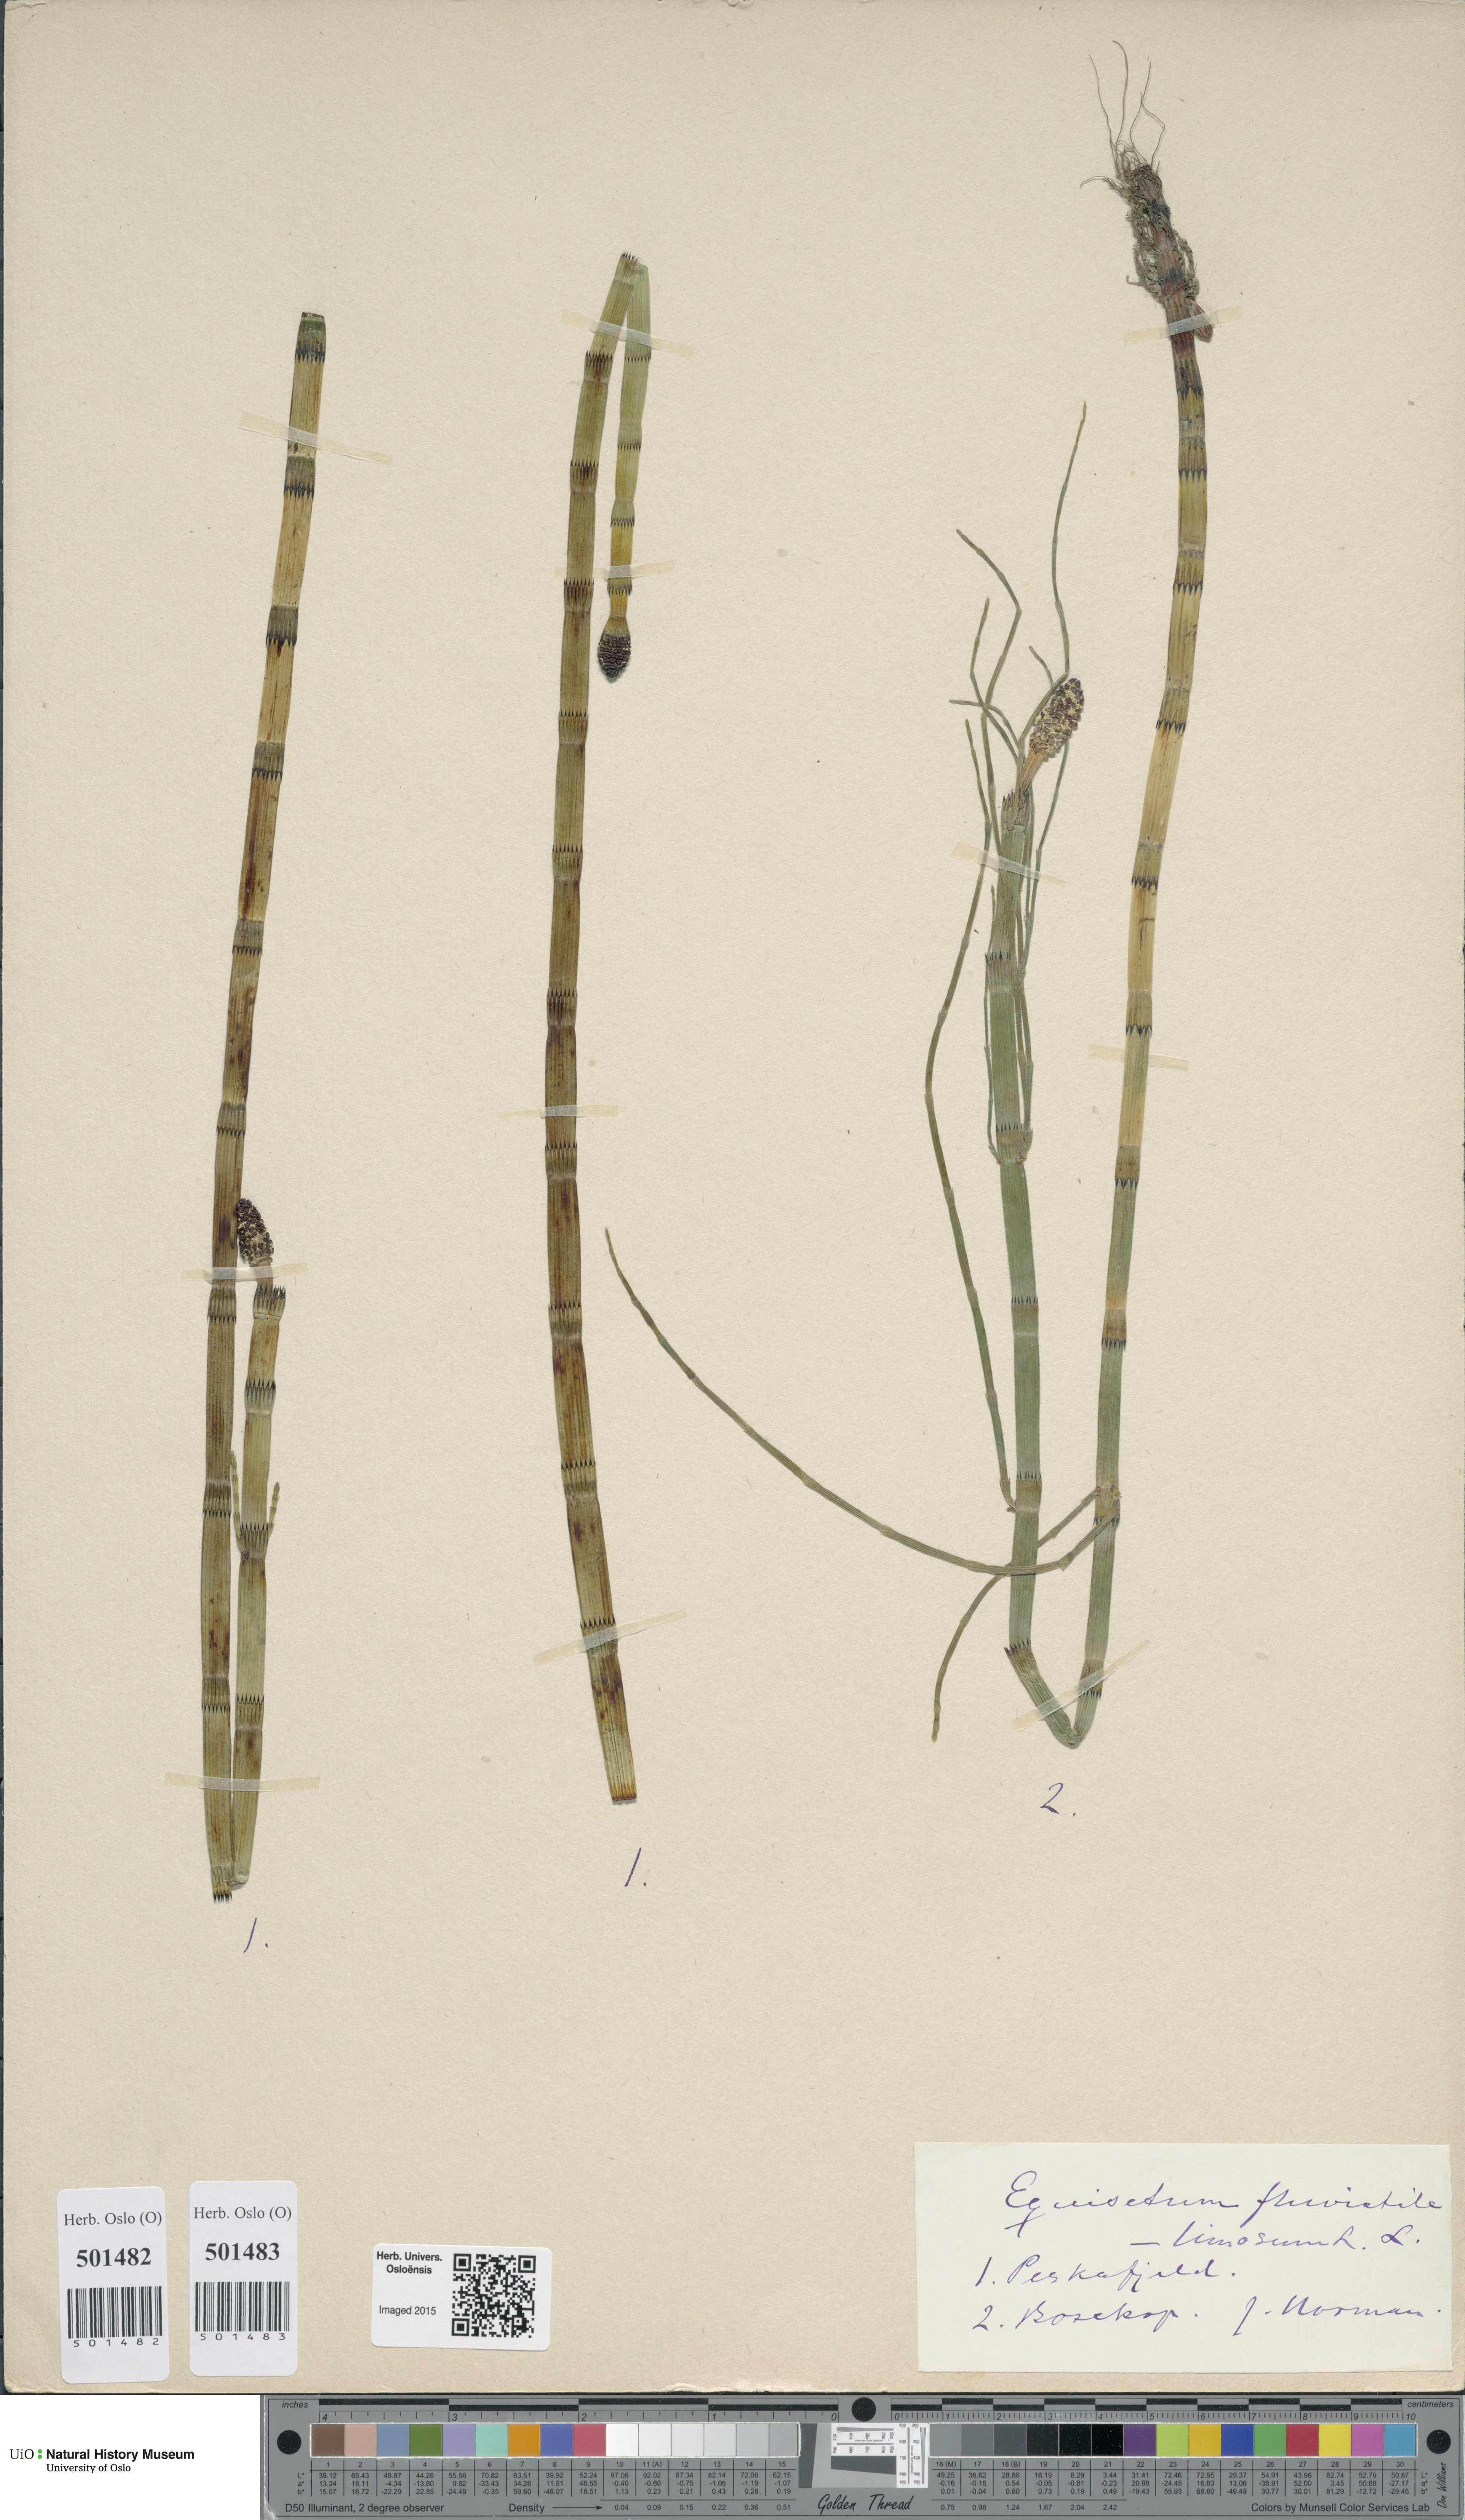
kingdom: Plantae
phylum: Tracheophyta
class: Polypodiopsida
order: Equisetales
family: Equisetaceae
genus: Equisetum
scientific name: Equisetum fluviatile
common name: Water horsetail
